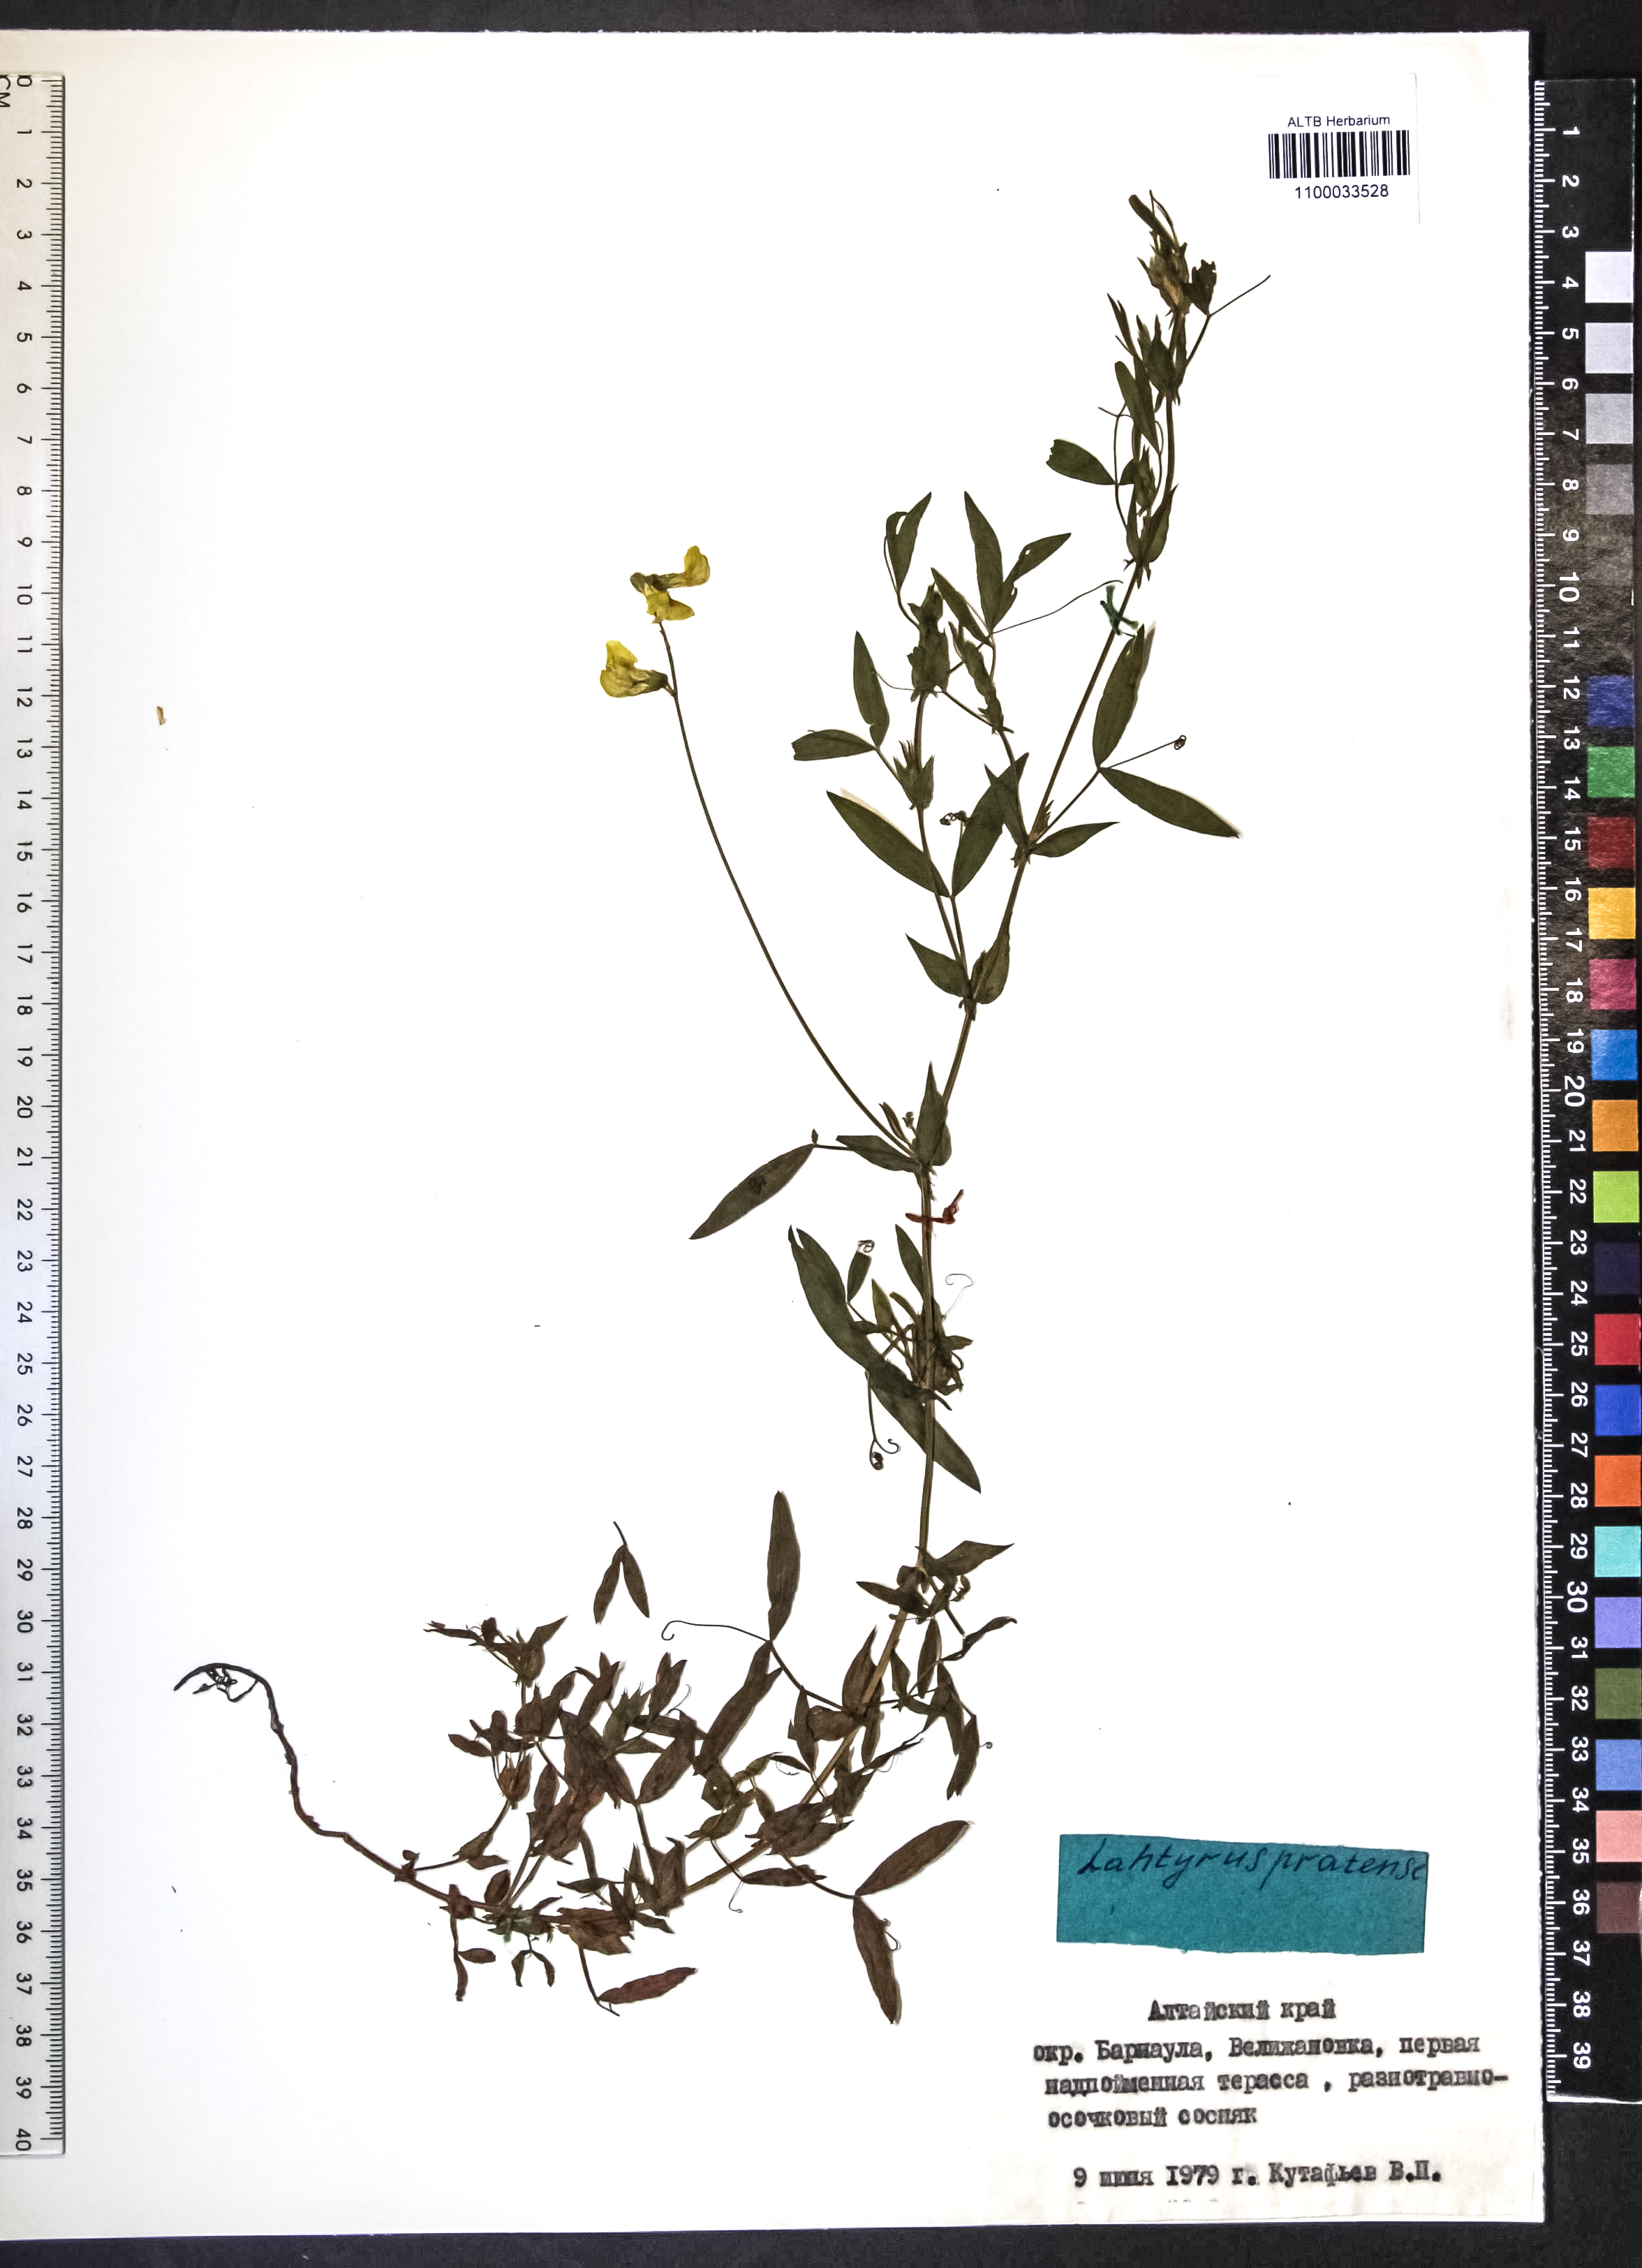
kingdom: Plantae
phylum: Tracheophyta
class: Magnoliopsida
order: Fabales
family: Fabaceae
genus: Lathyrus
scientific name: Lathyrus pratensis
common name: Meadow vetchling
